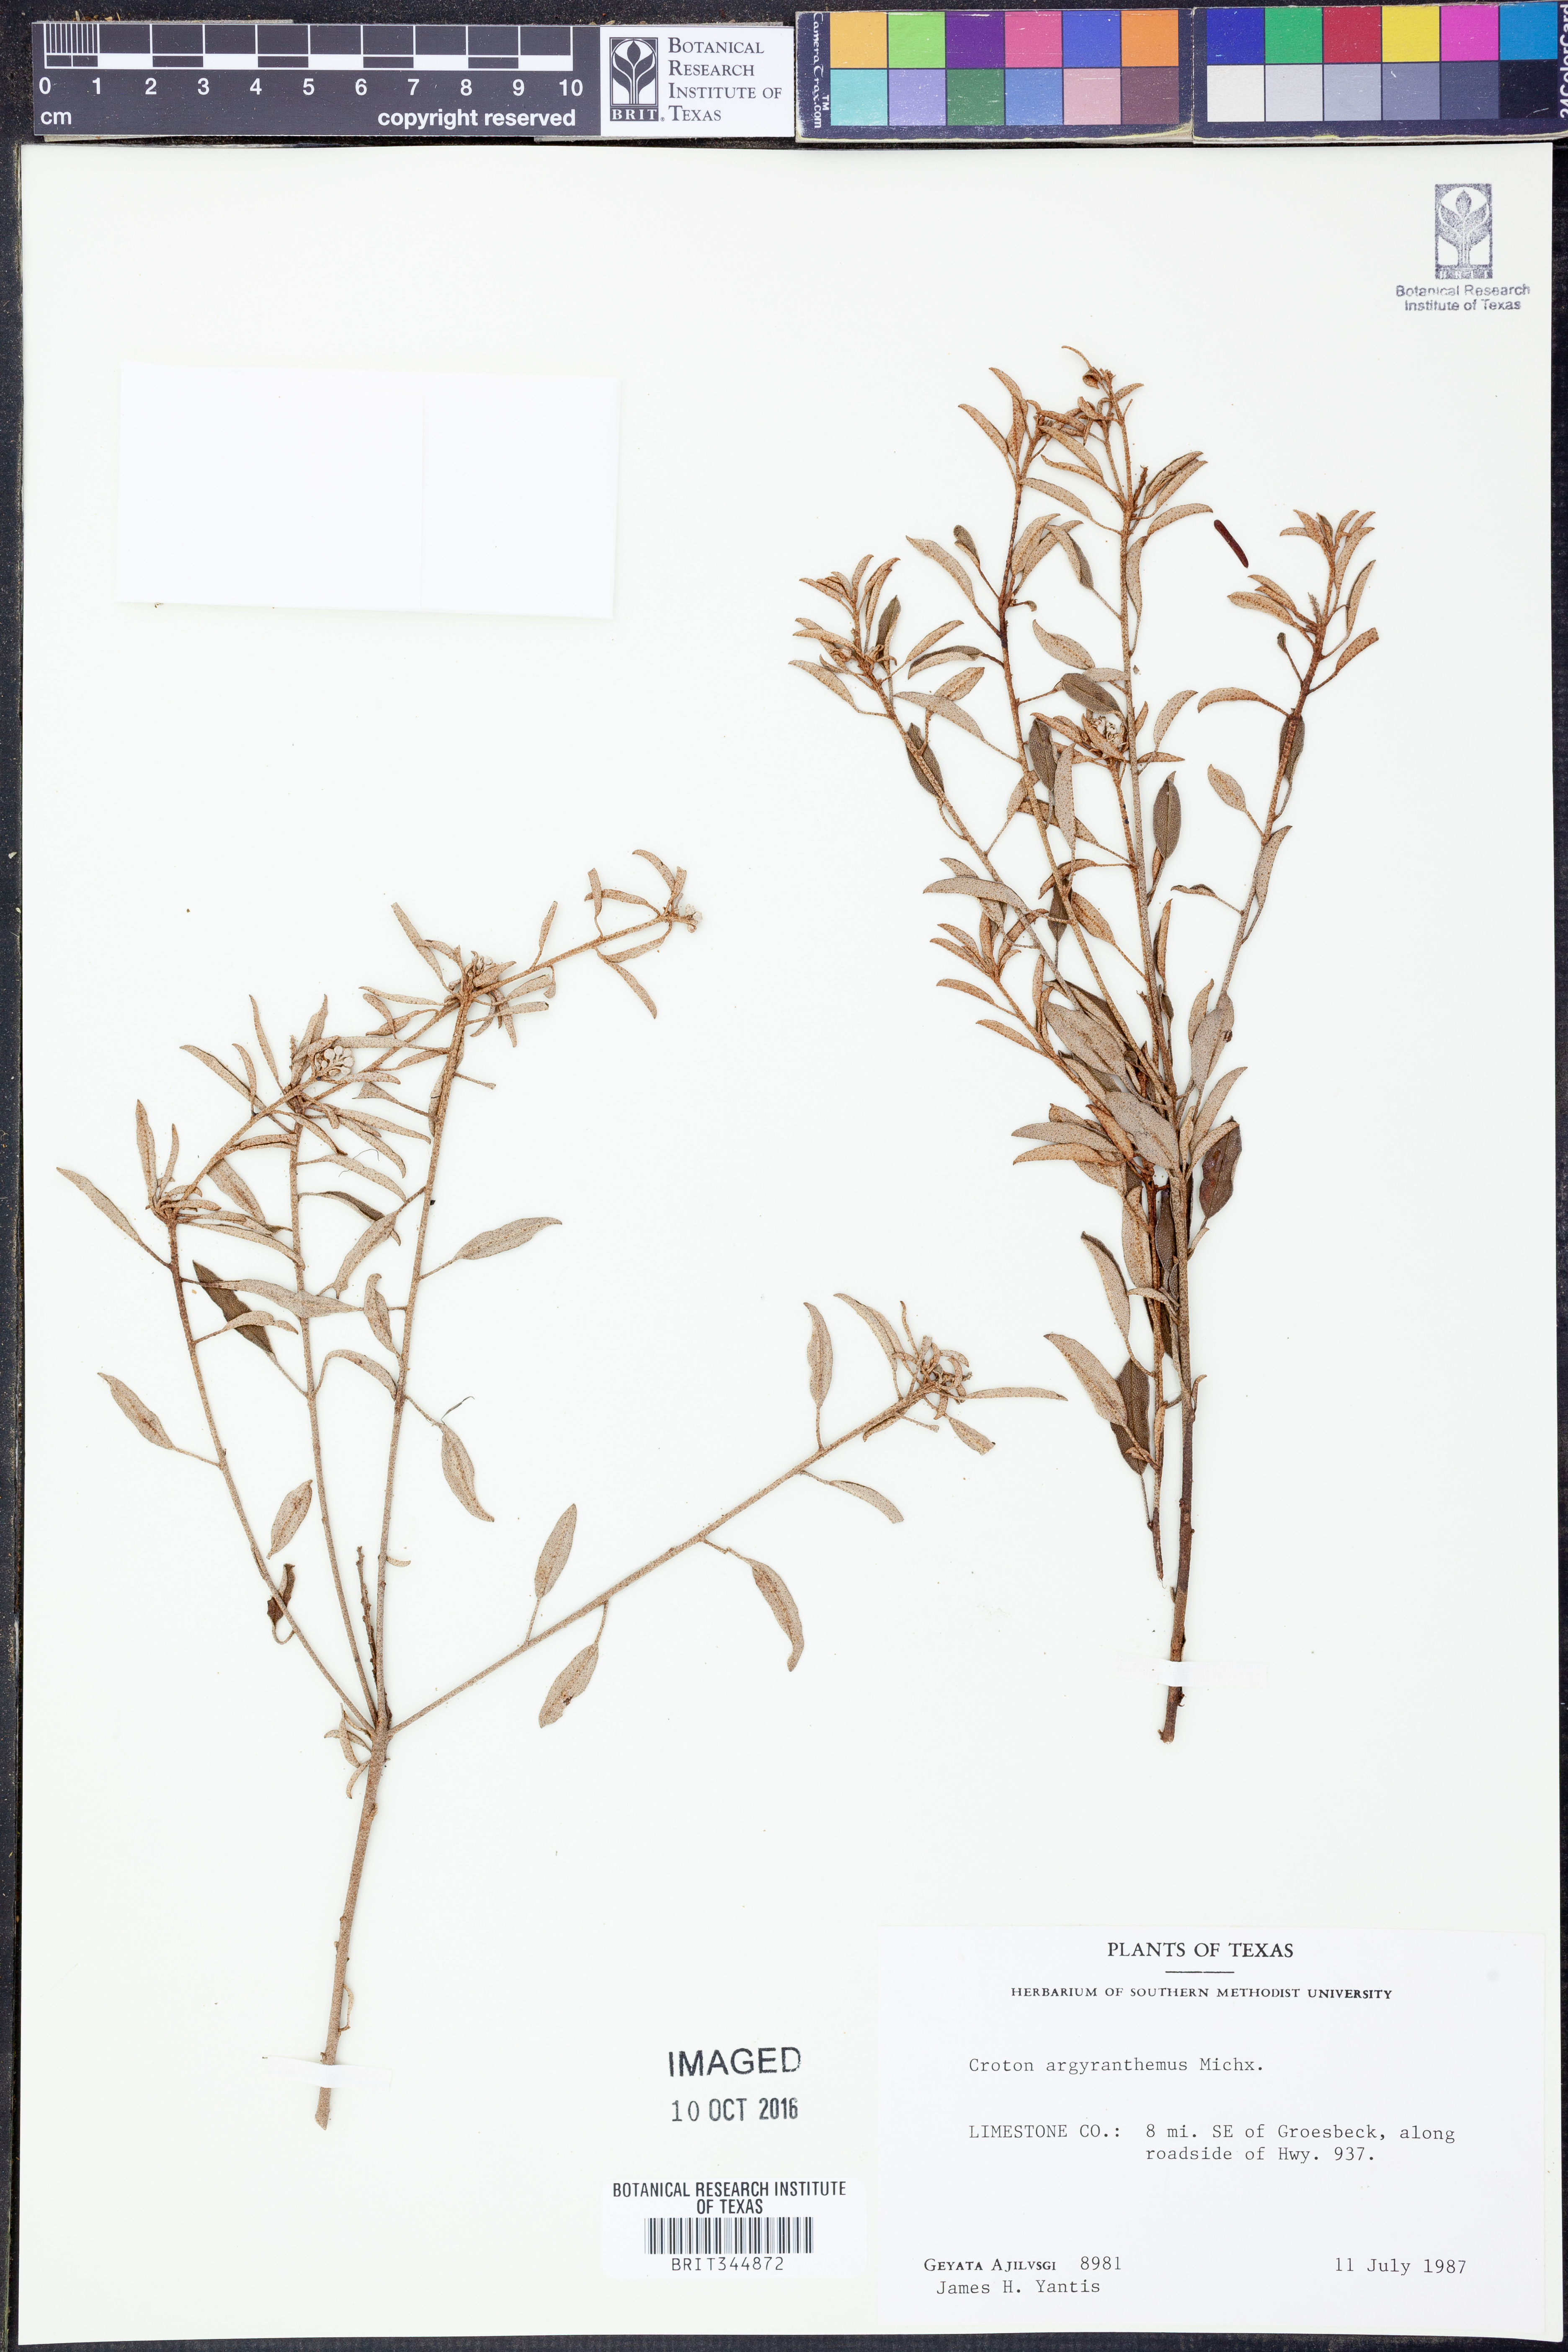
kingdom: Plantae
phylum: Tracheophyta
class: Magnoliopsida
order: Malpighiales
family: Euphorbiaceae
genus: Croton
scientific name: Croton argyranthemus
